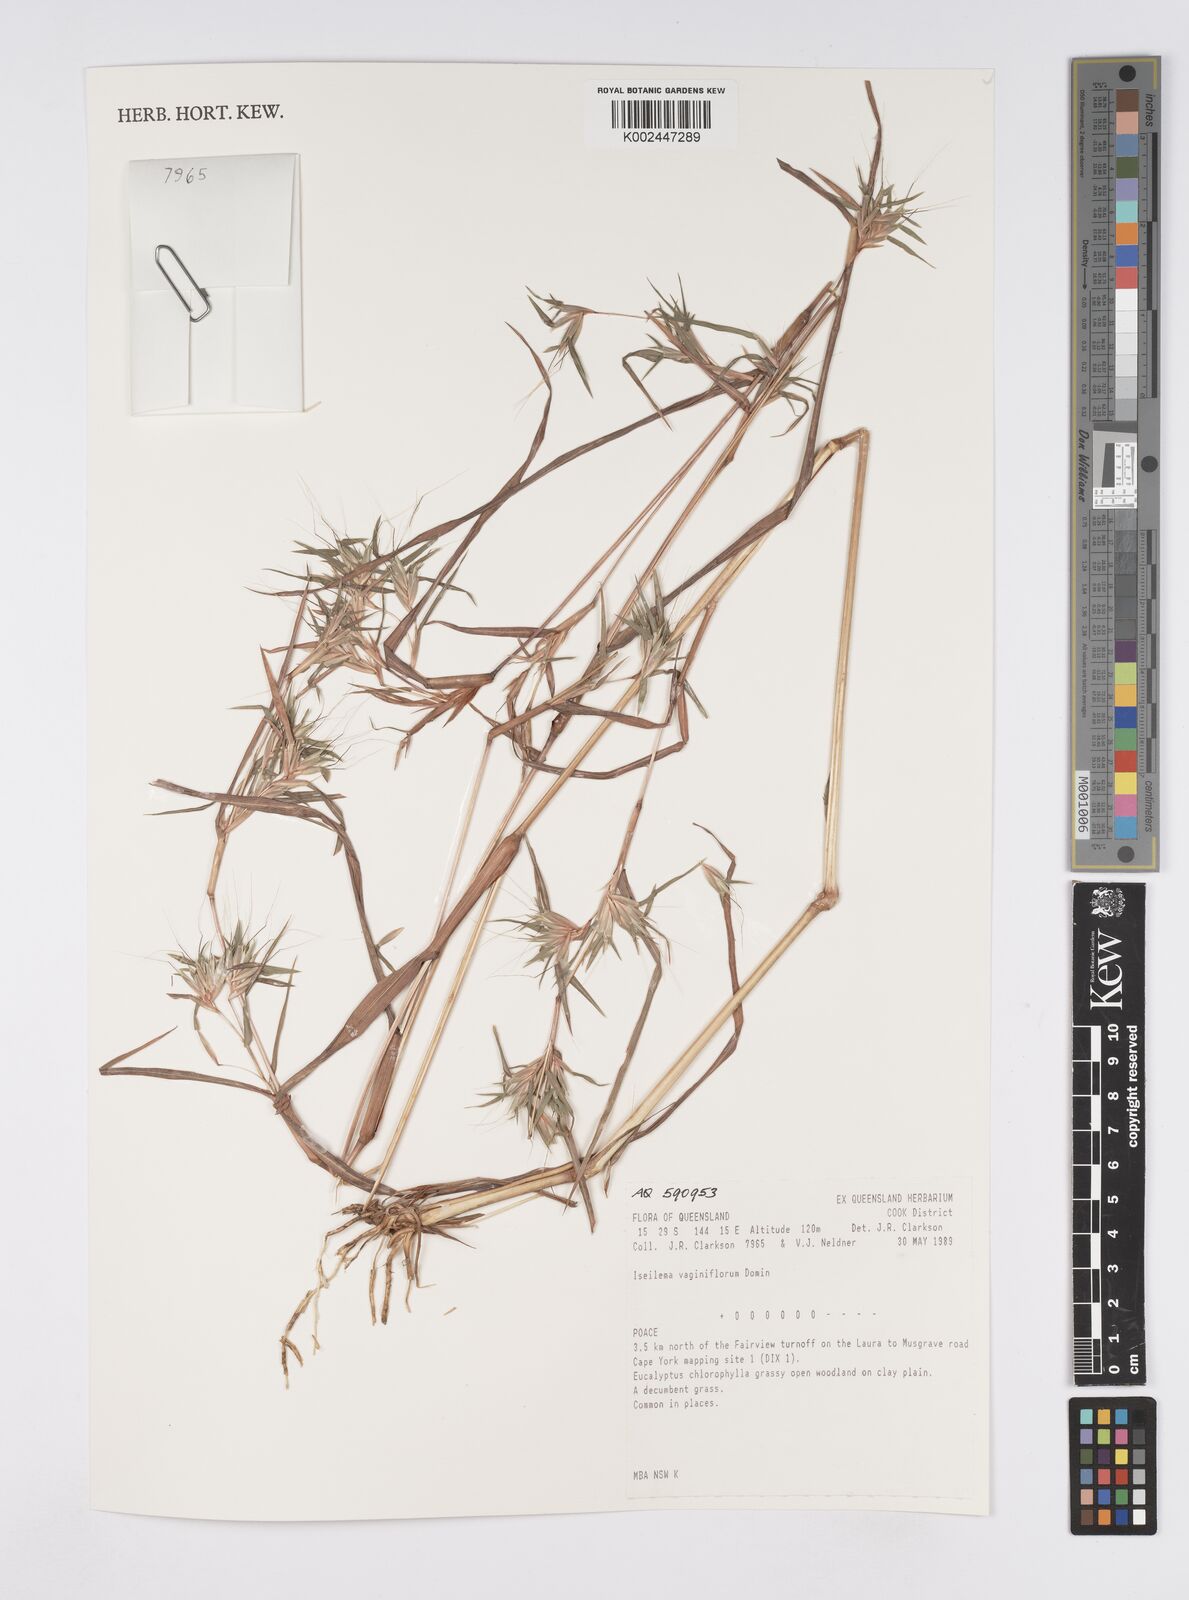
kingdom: Plantae
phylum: Tracheophyta
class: Liliopsida
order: Poales
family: Poaceae
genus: Iseilema
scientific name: Iseilema vaginiflorum
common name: Red flinders grass
